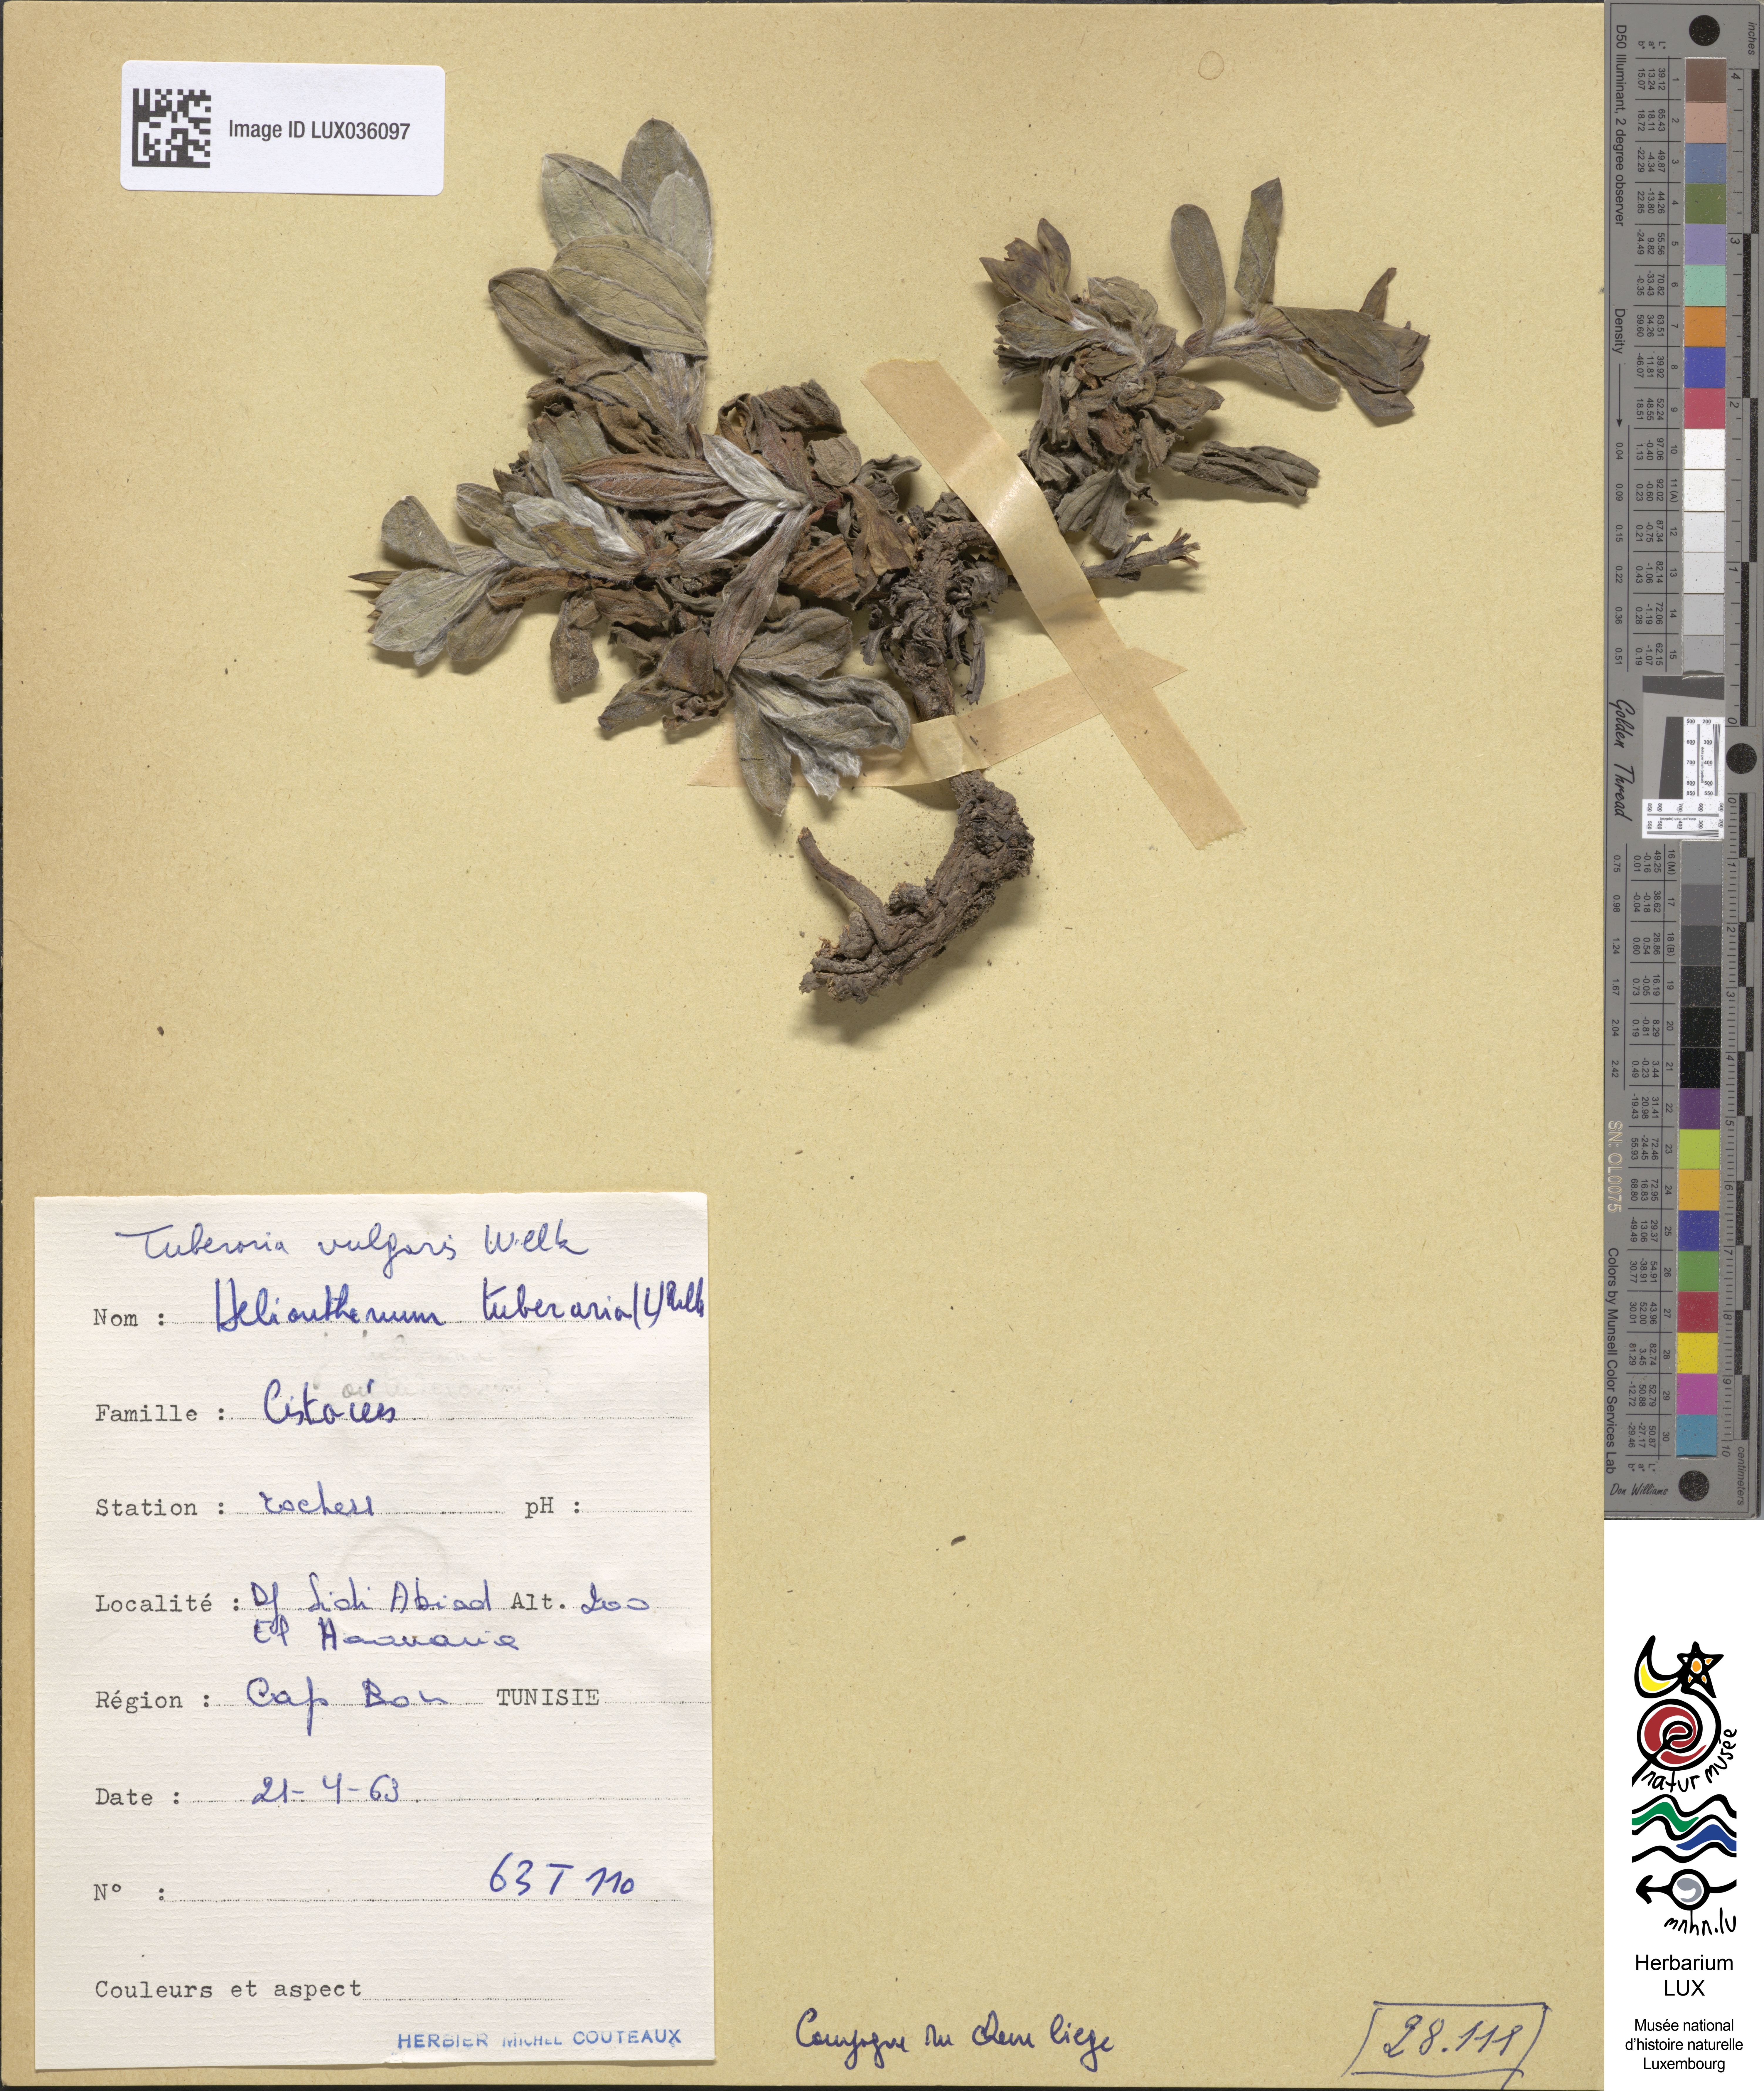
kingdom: Plantae
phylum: Tracheophyta
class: Magnoliopsida
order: Malvales
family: Cistaceae
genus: Tuberaria
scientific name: Tuberaria lignosa
